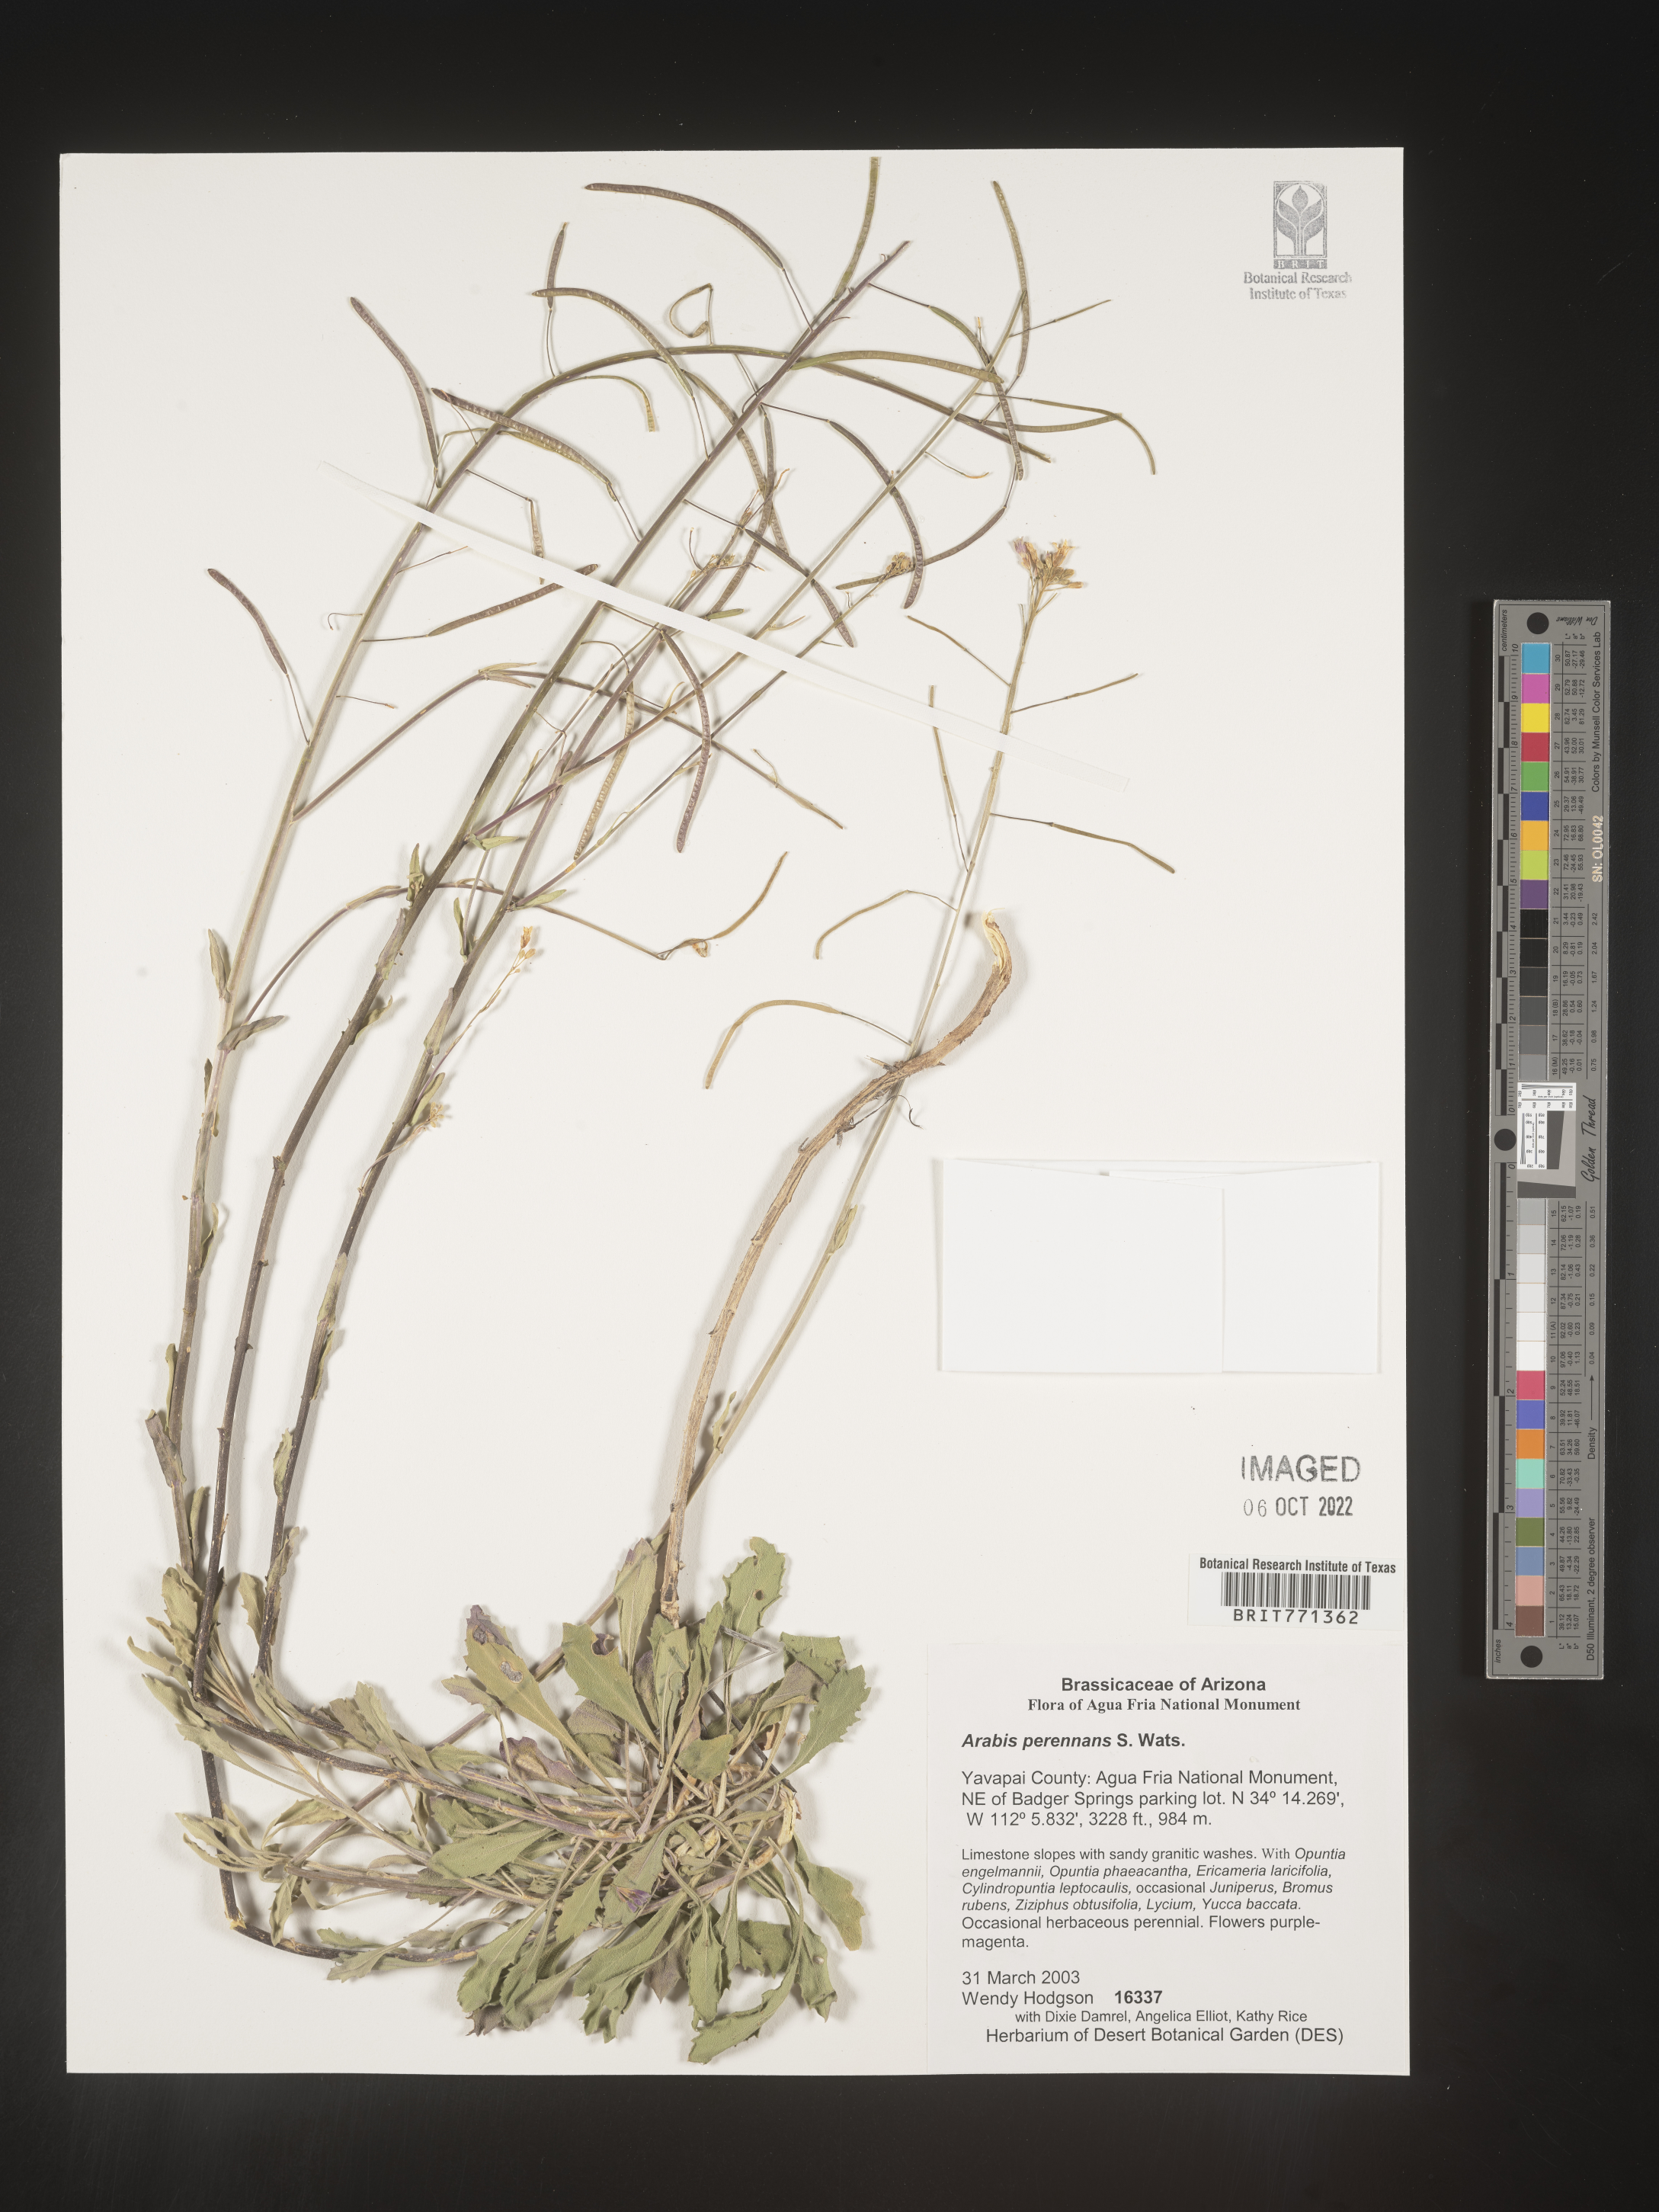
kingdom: Plantae
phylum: Tracheophyta
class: Magnoliopsida
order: Brassicales
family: Brassicaceae
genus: Arabis
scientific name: Arabis
